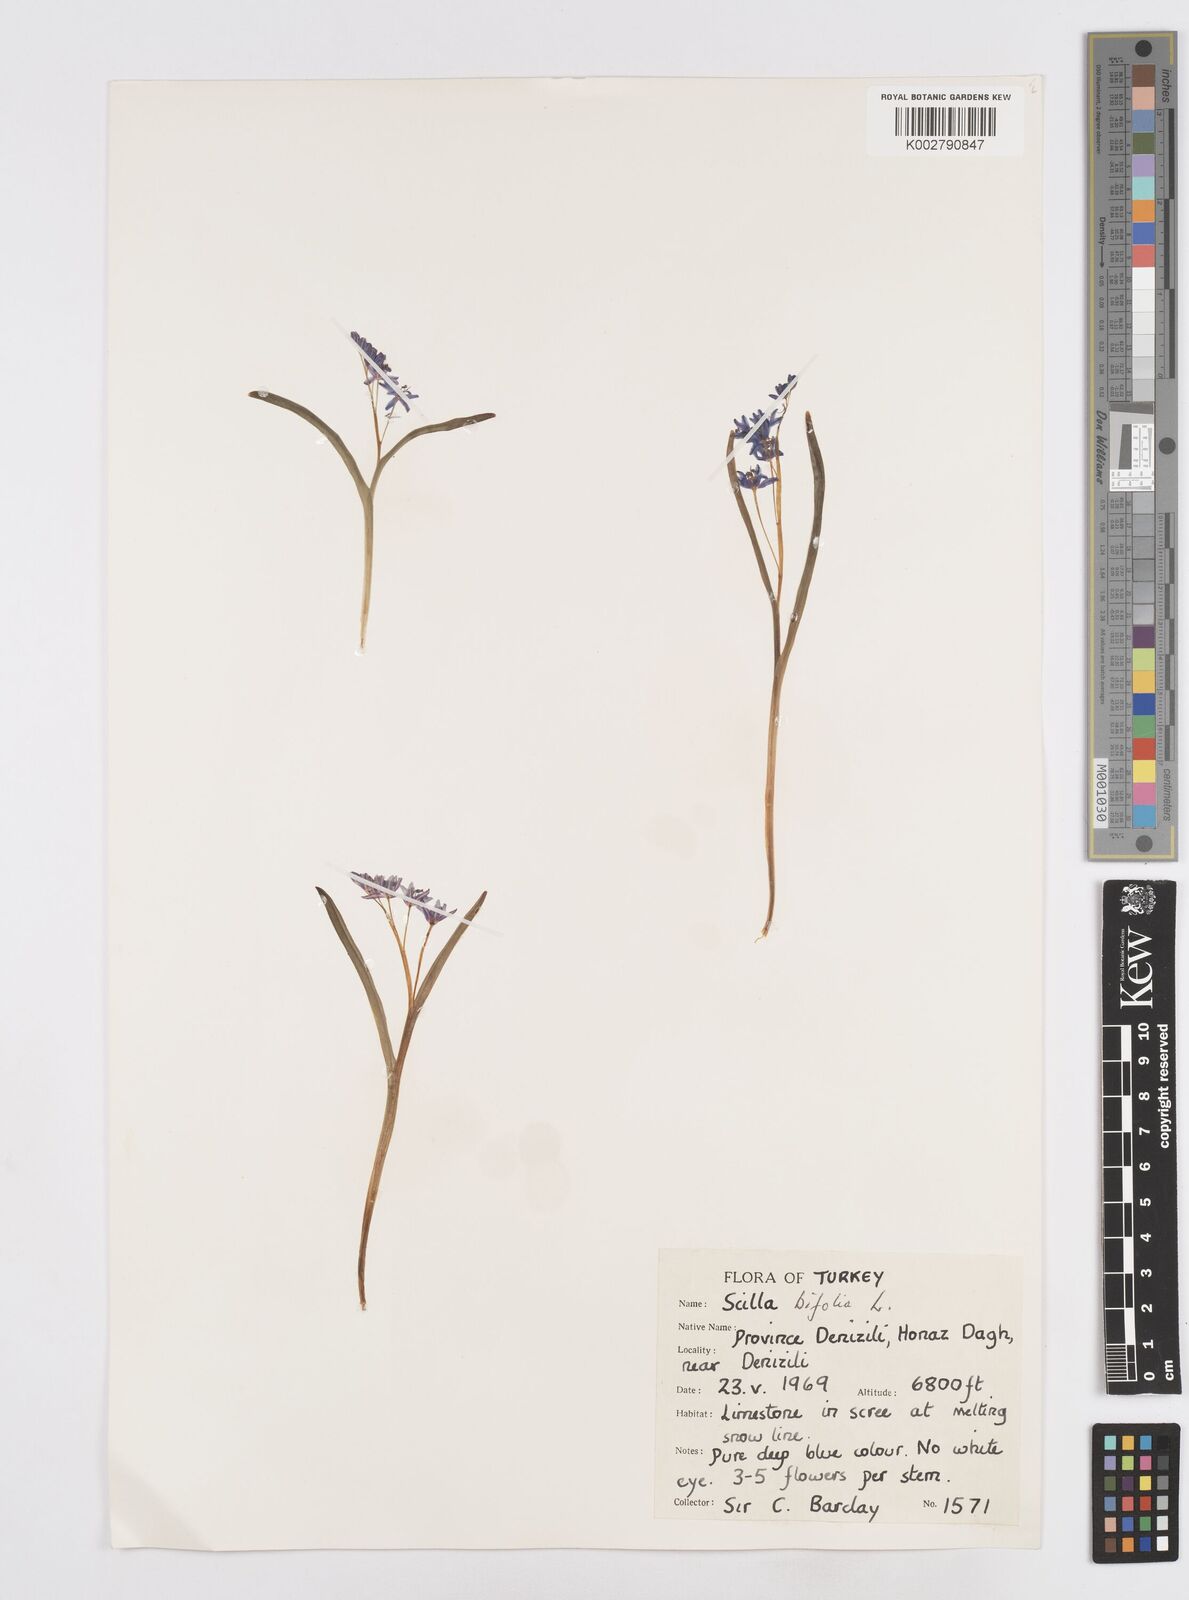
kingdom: Plantae
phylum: Tracheophyta
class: Liliopsida
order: Asparagales
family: Asparagaceae
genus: Scilla
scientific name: Scilla bifolia
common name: Alpine squill
